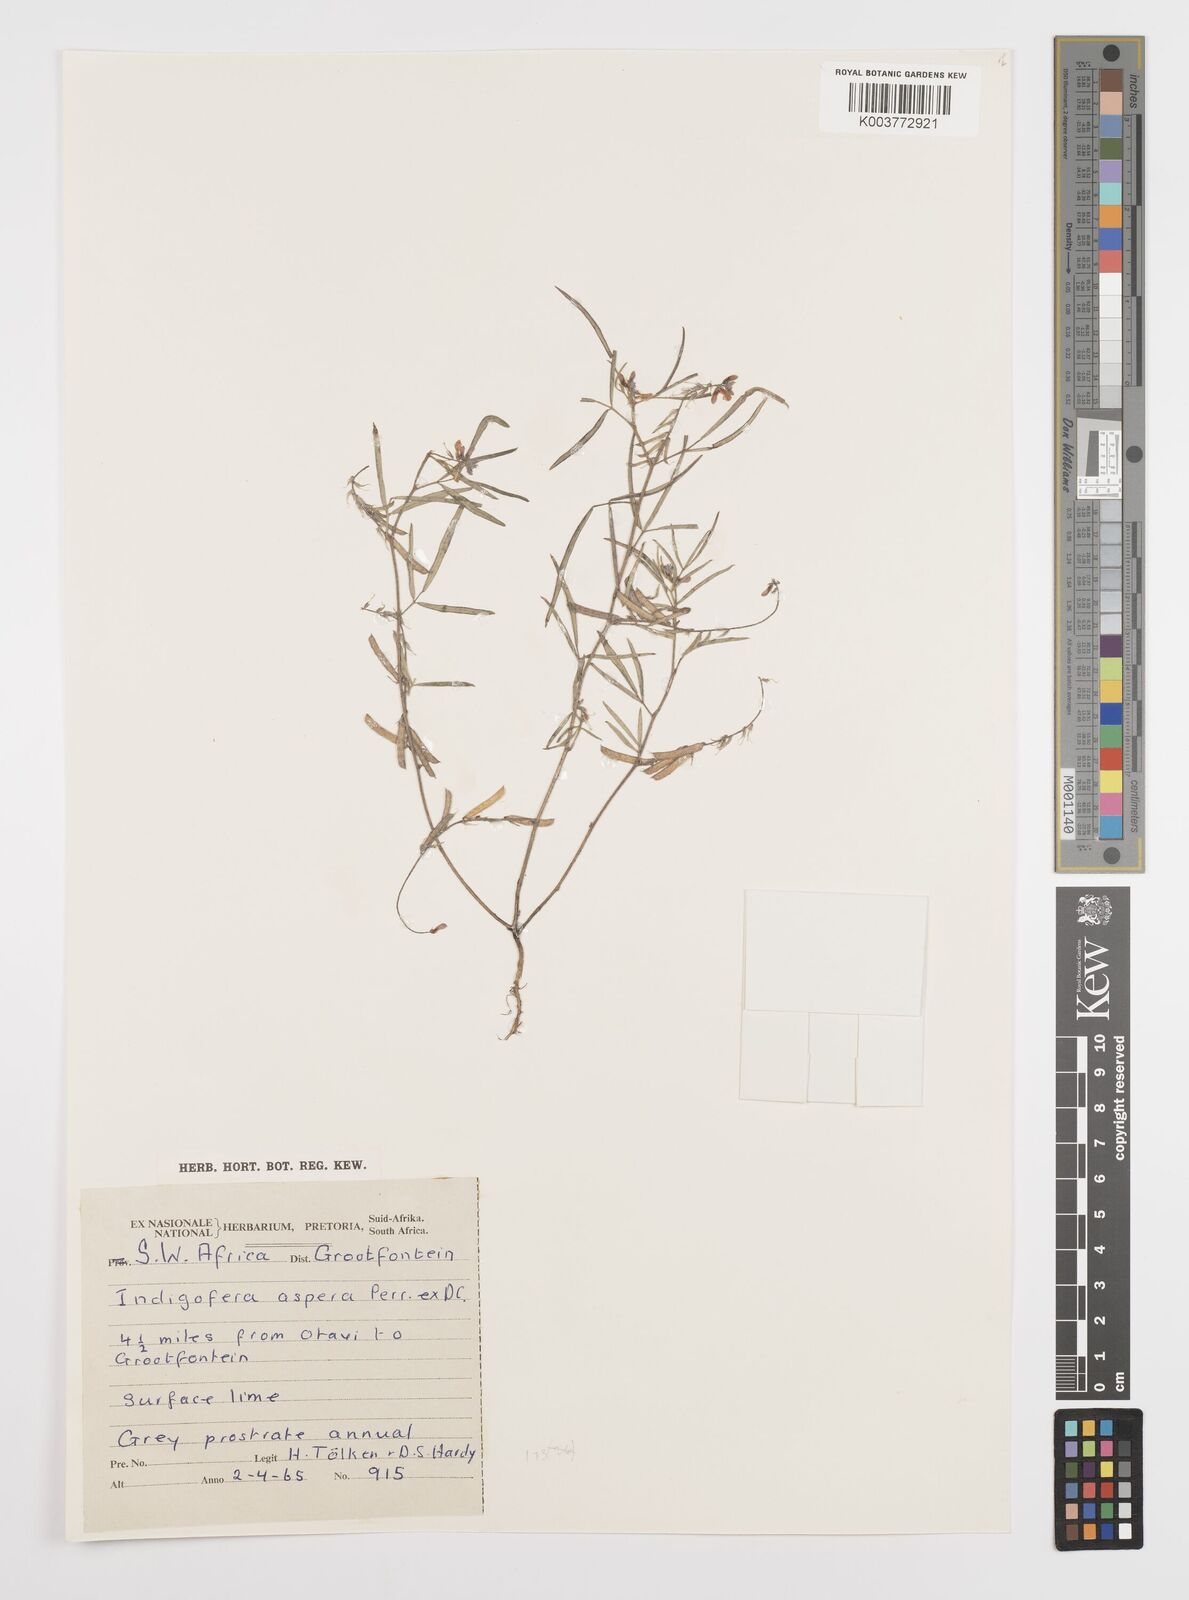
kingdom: Plantae
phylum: Tracheophyta
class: Magnoliopsida
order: Fabales
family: Fabaceae
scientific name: Fabaceae
